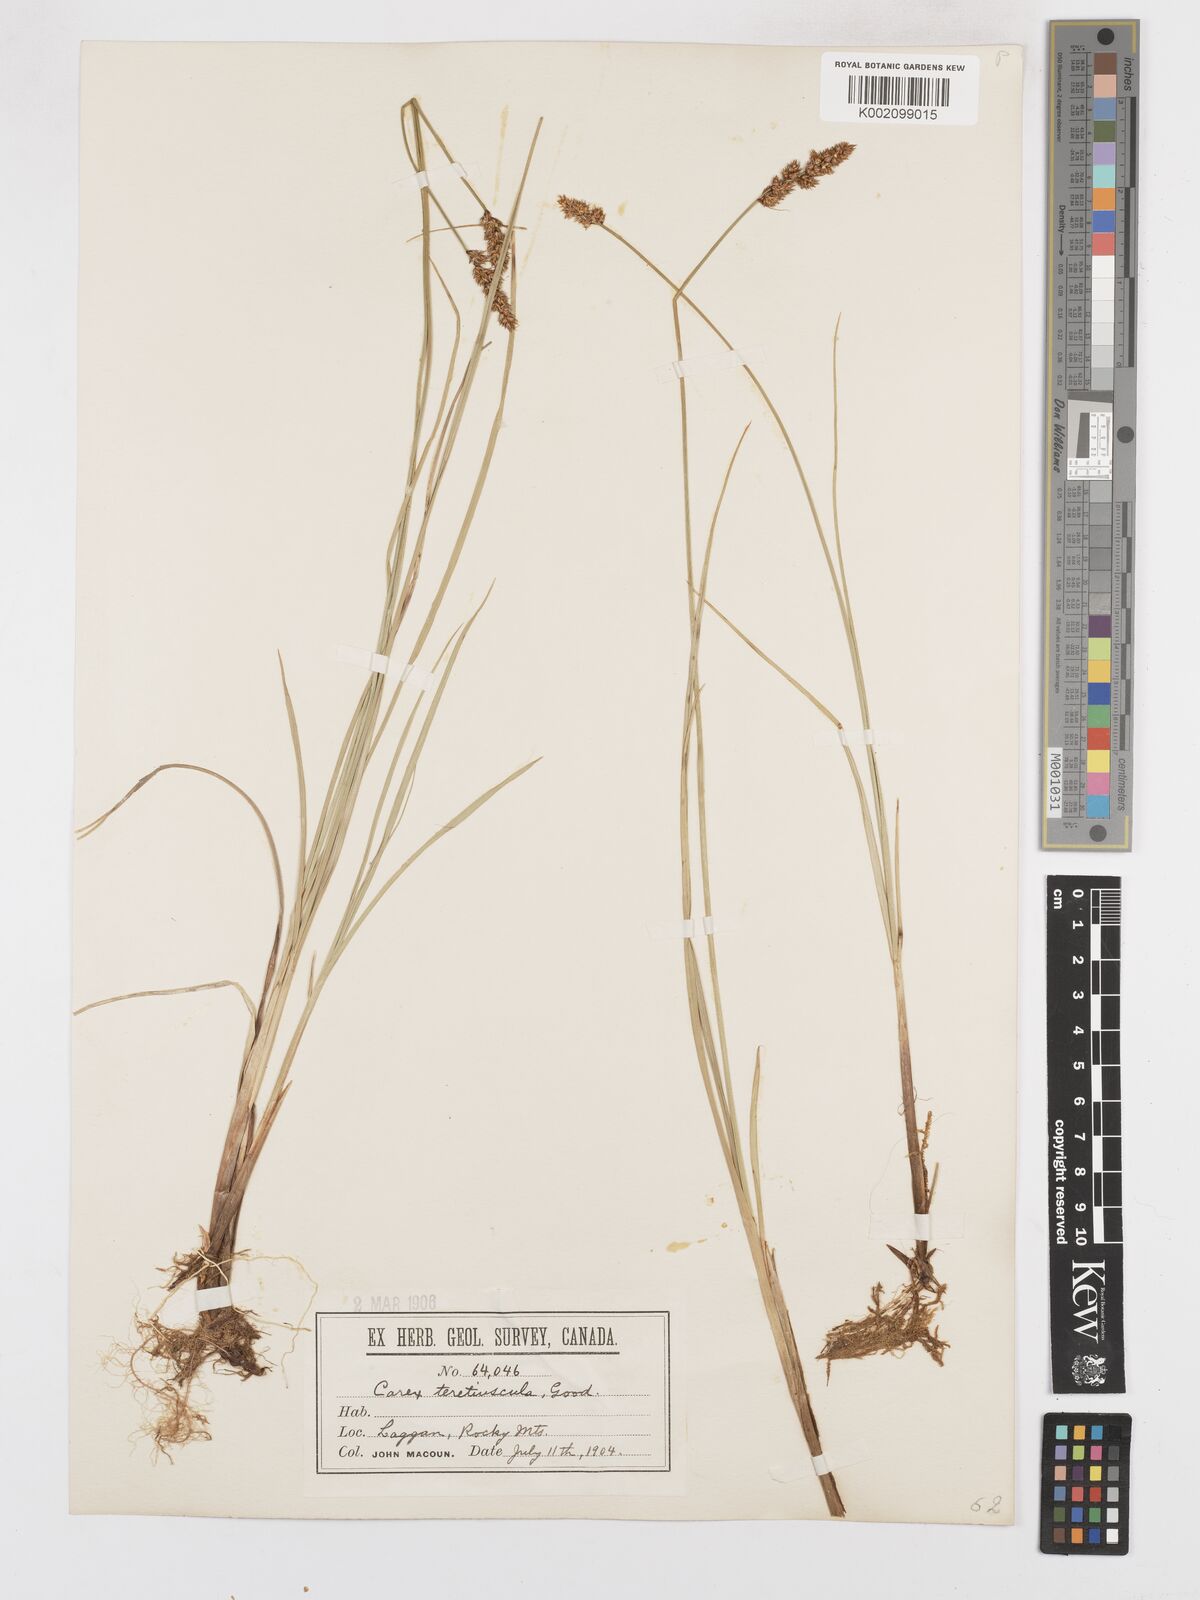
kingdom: Plantae
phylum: Tracheophyta
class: Liliopsida
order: Poales
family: Cyperaceae
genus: Carex
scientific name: Carex diandra
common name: Lesser tussock-sedge
